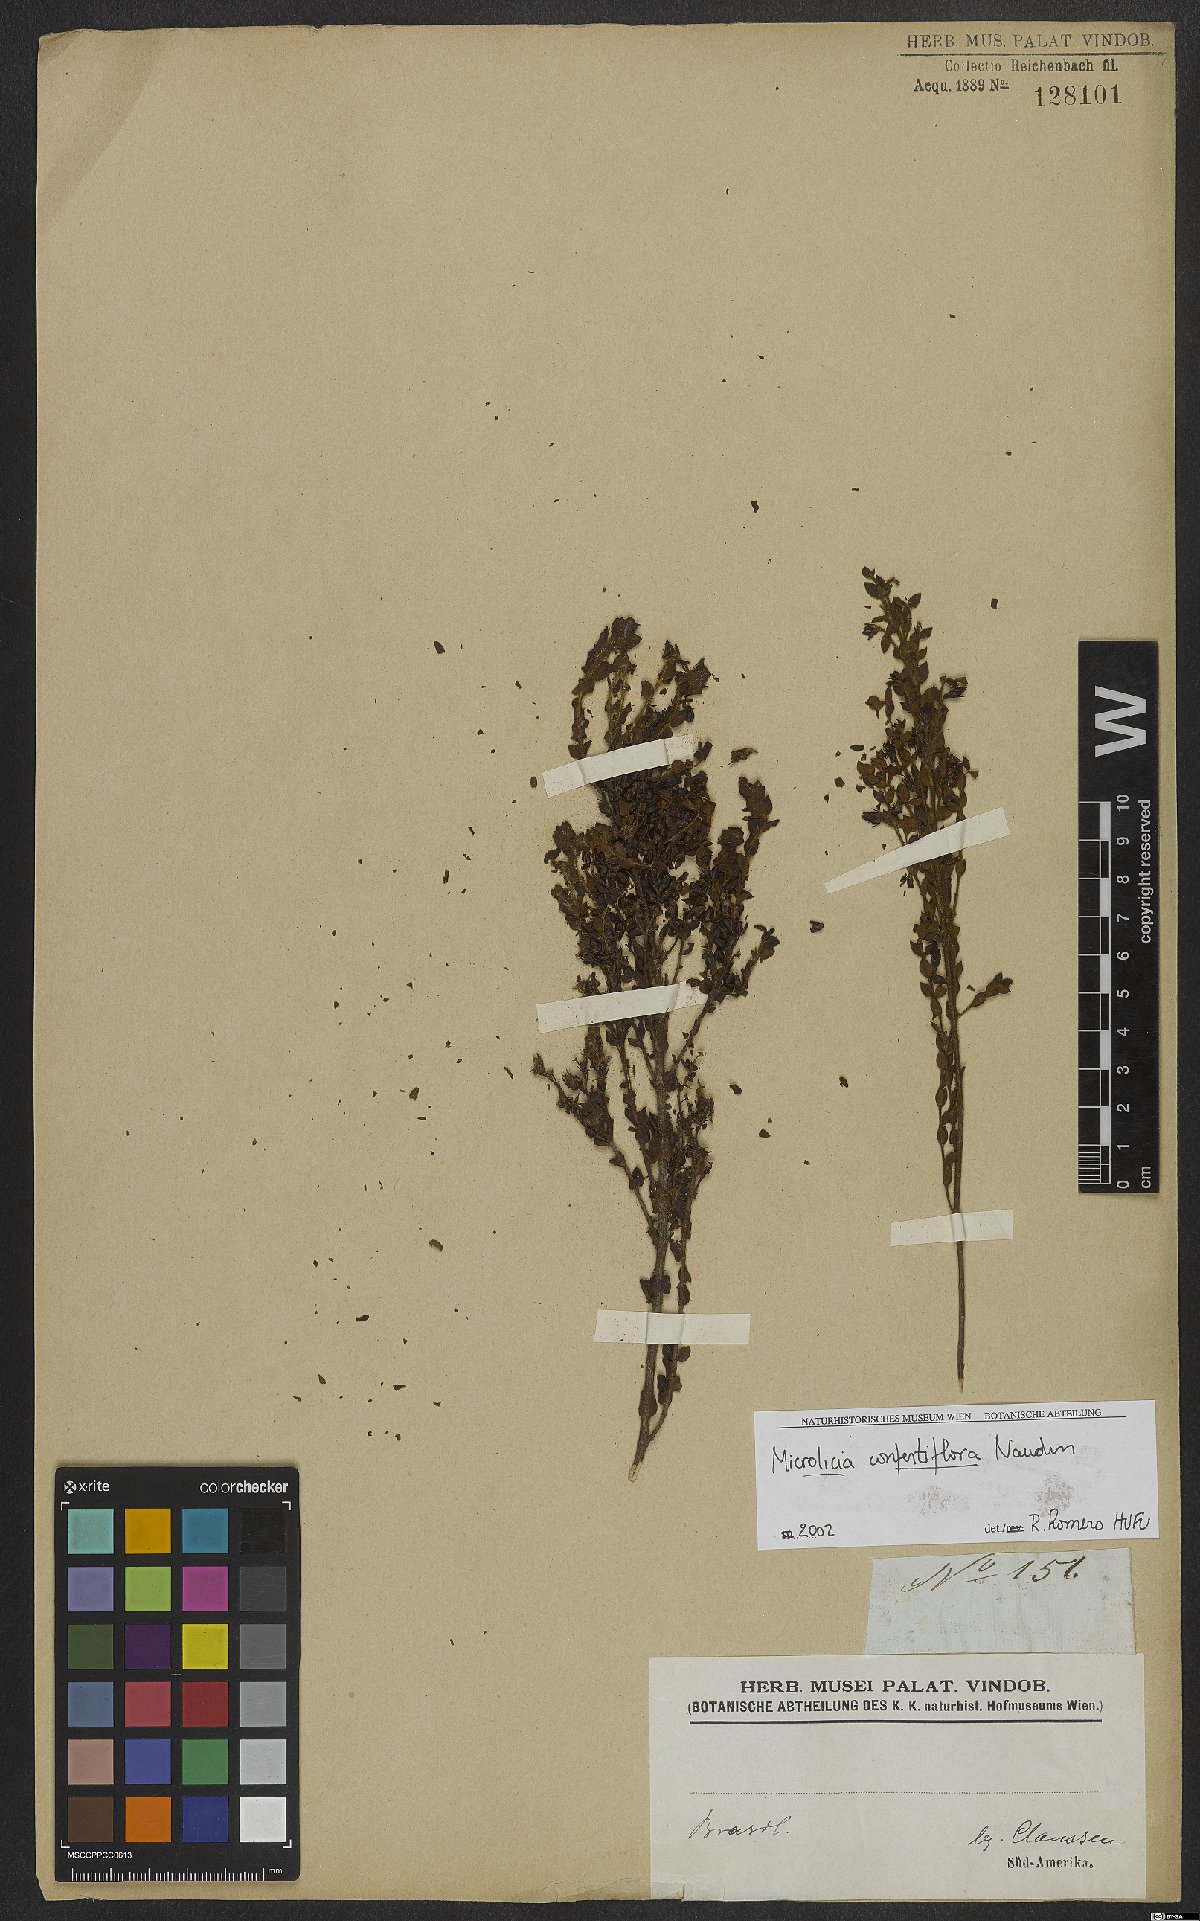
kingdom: Plantae
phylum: Tracheophyta
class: Magnoliopsida
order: Myrtales
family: Melastomataceae
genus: Microlicia
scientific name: Microlicia confertiflora
